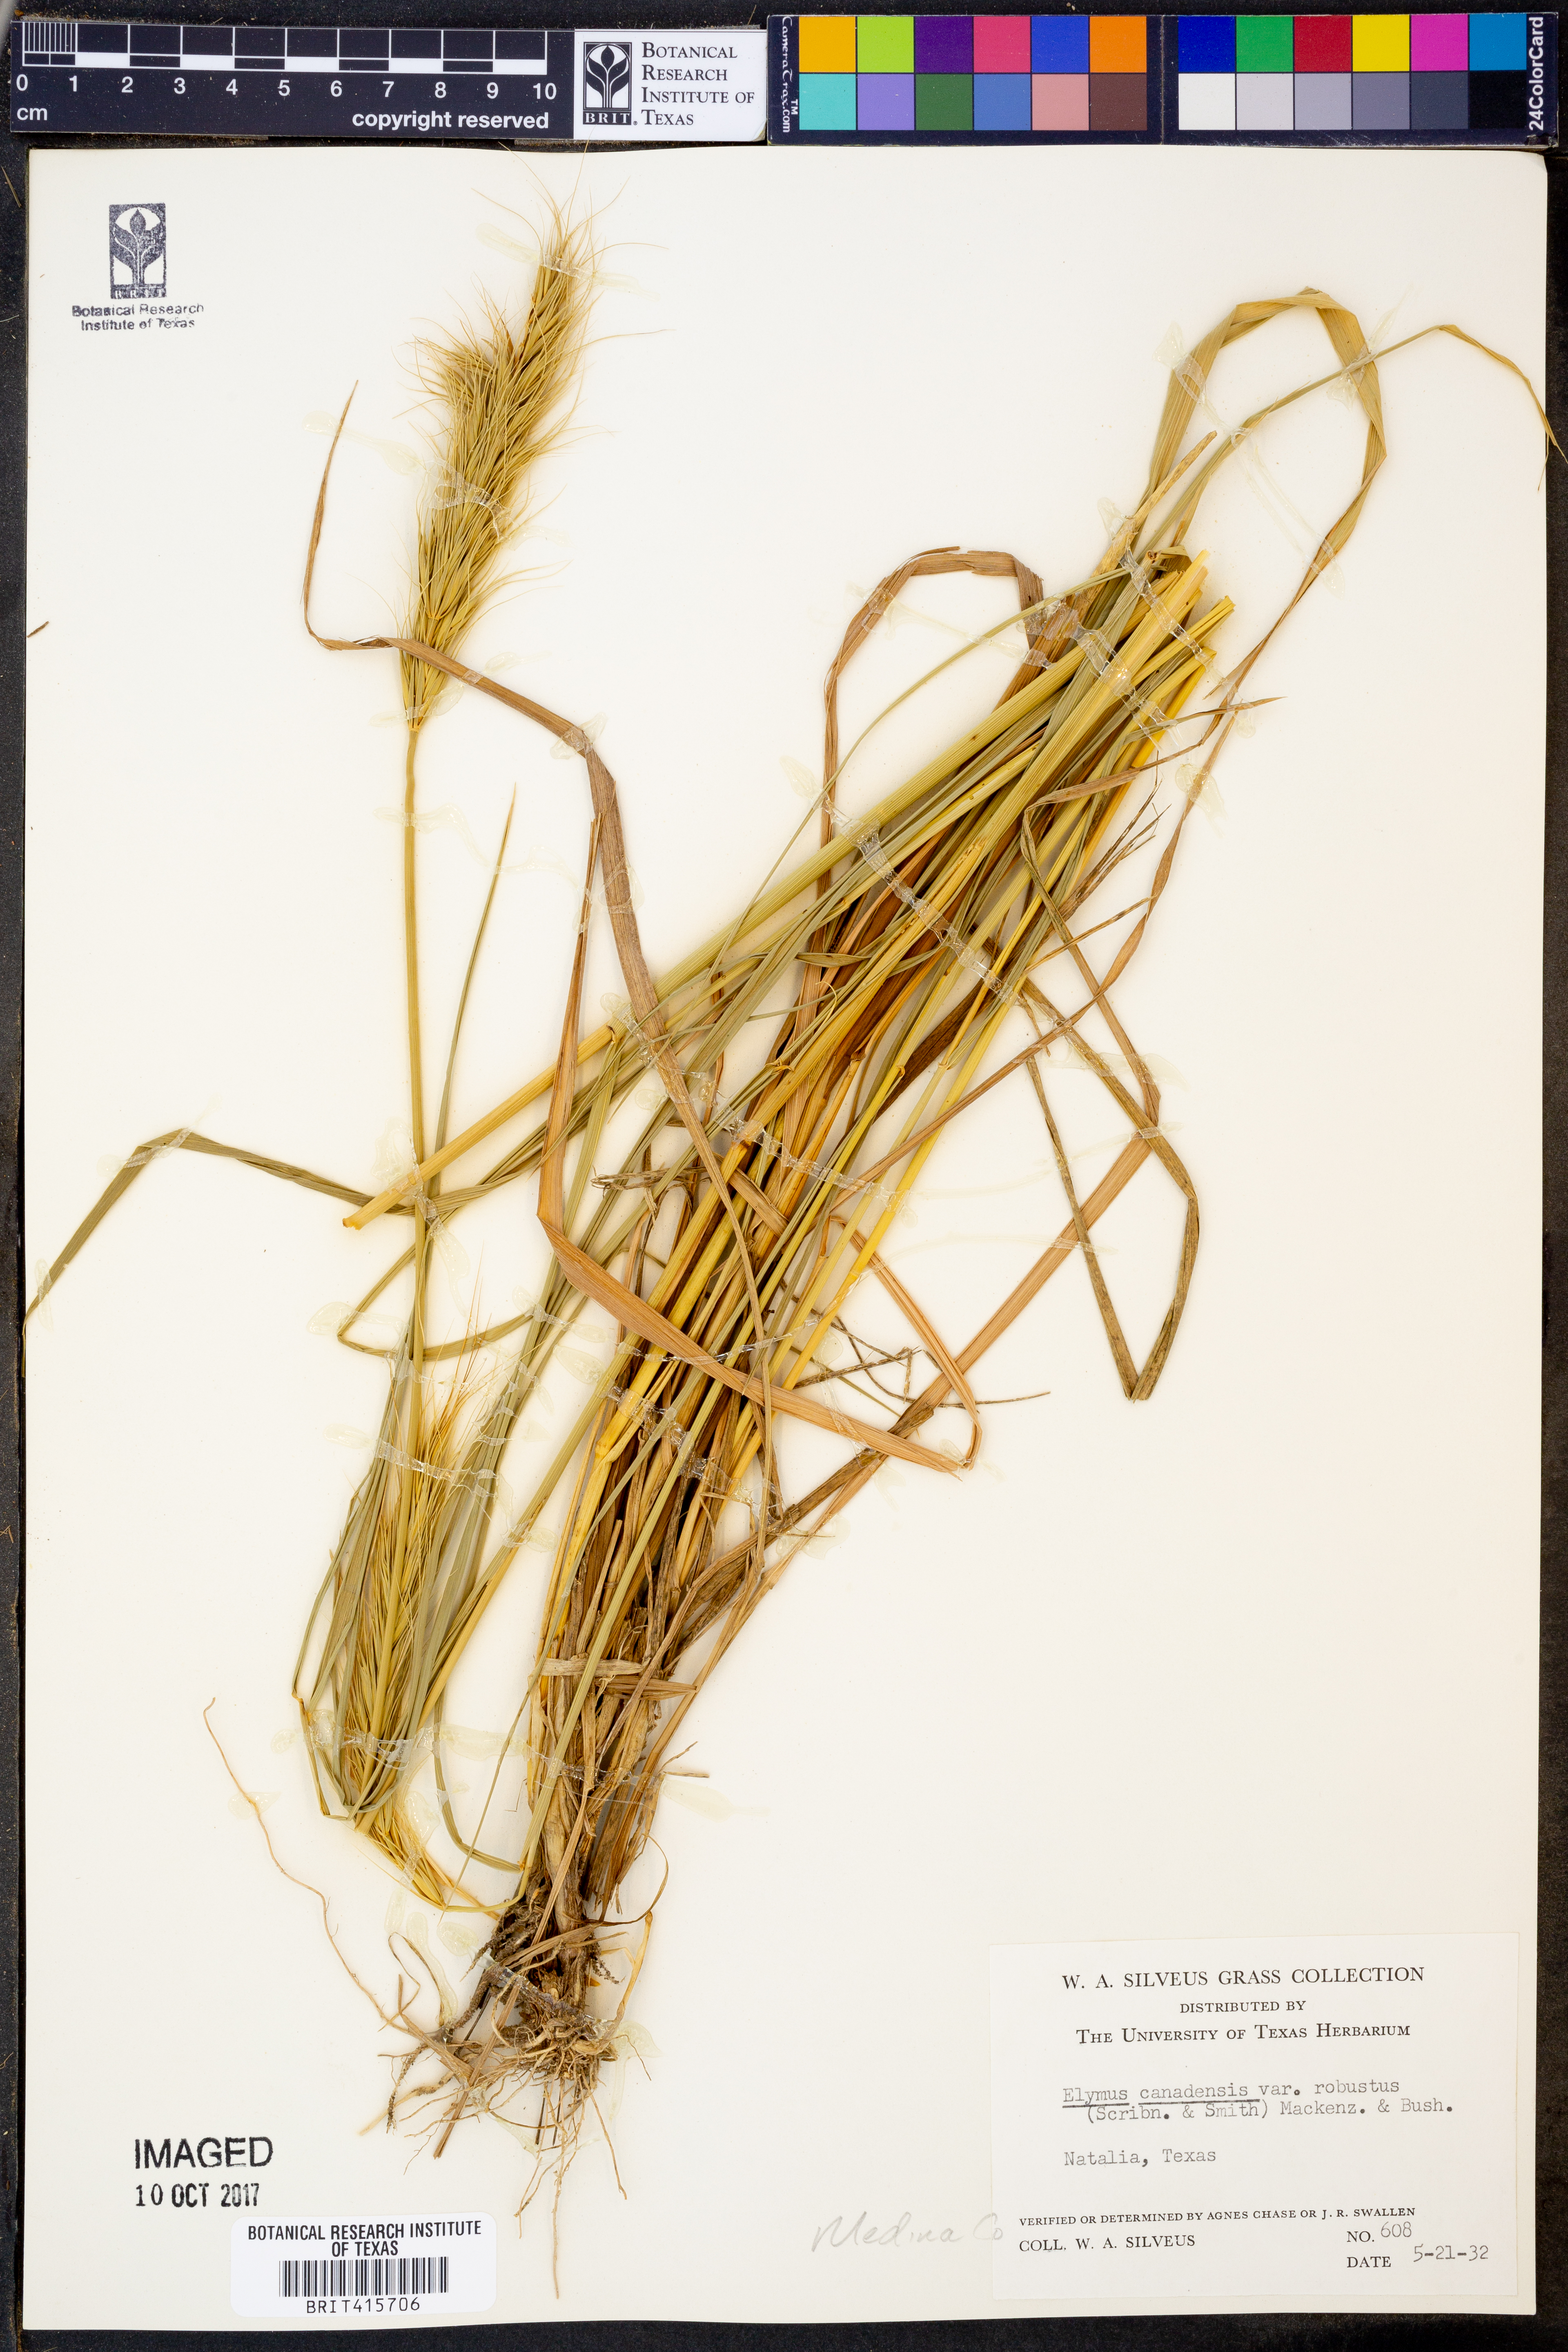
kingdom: Plantae
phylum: Tracheophyta
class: Liliopsida
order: Poales
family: Poaceae
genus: Elymus
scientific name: Elymus canadensis
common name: Canada wild rye
